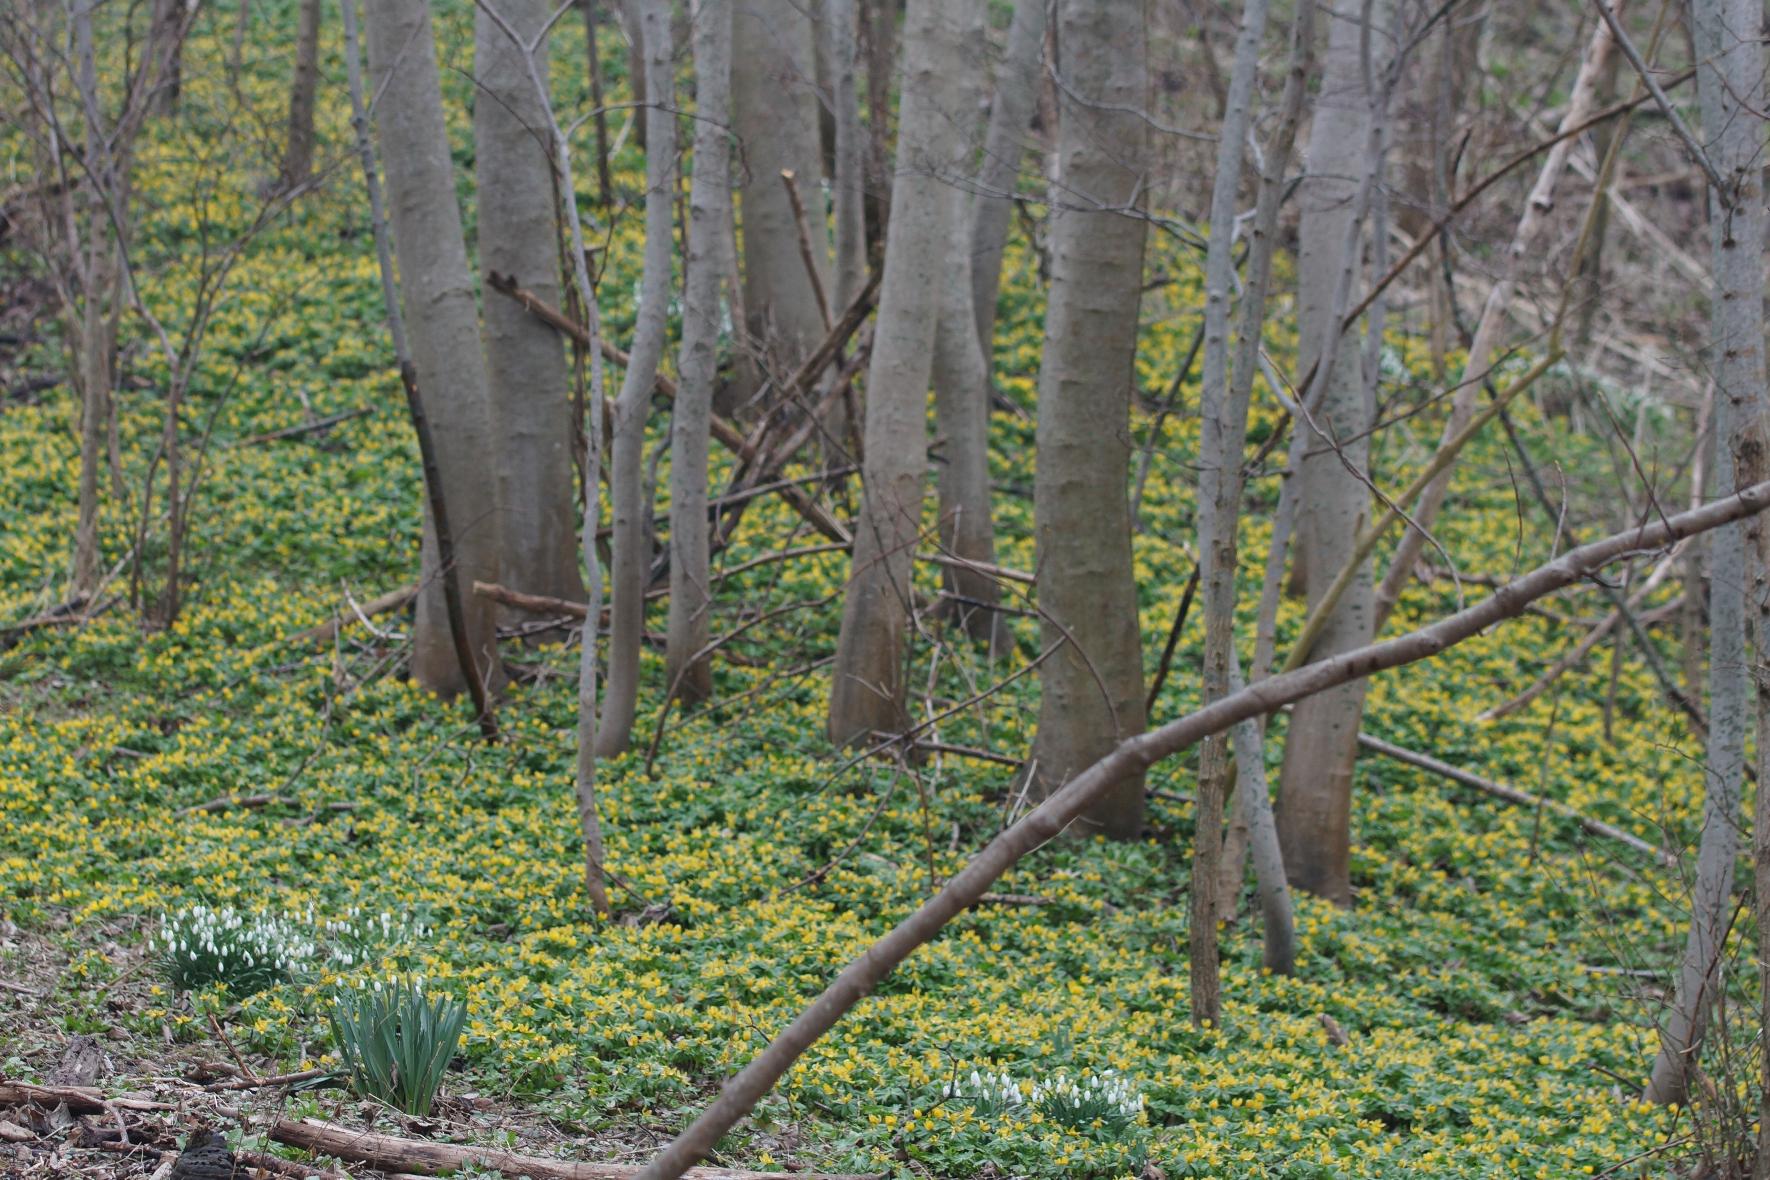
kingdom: Plantae
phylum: Tracheophyta
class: Magnoliopsida
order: Ranunculales
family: Ranunculaceae
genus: Eranthis
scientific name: Eranthis hyemalis
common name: Erantis
